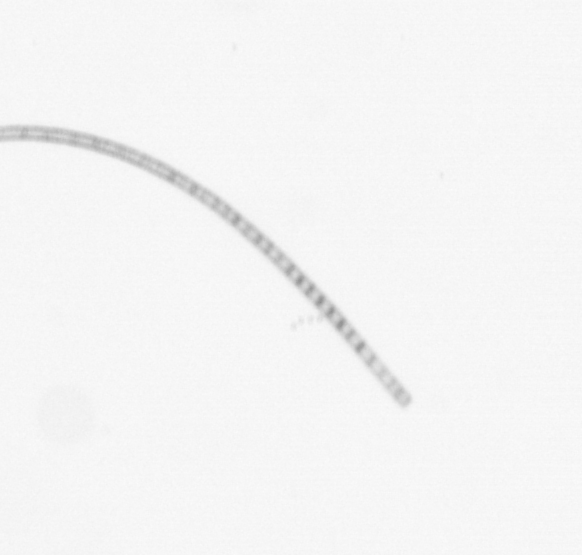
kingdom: Chromista
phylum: Ochrophyta
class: Bacillariophyceae
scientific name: Bacillariophyceae
